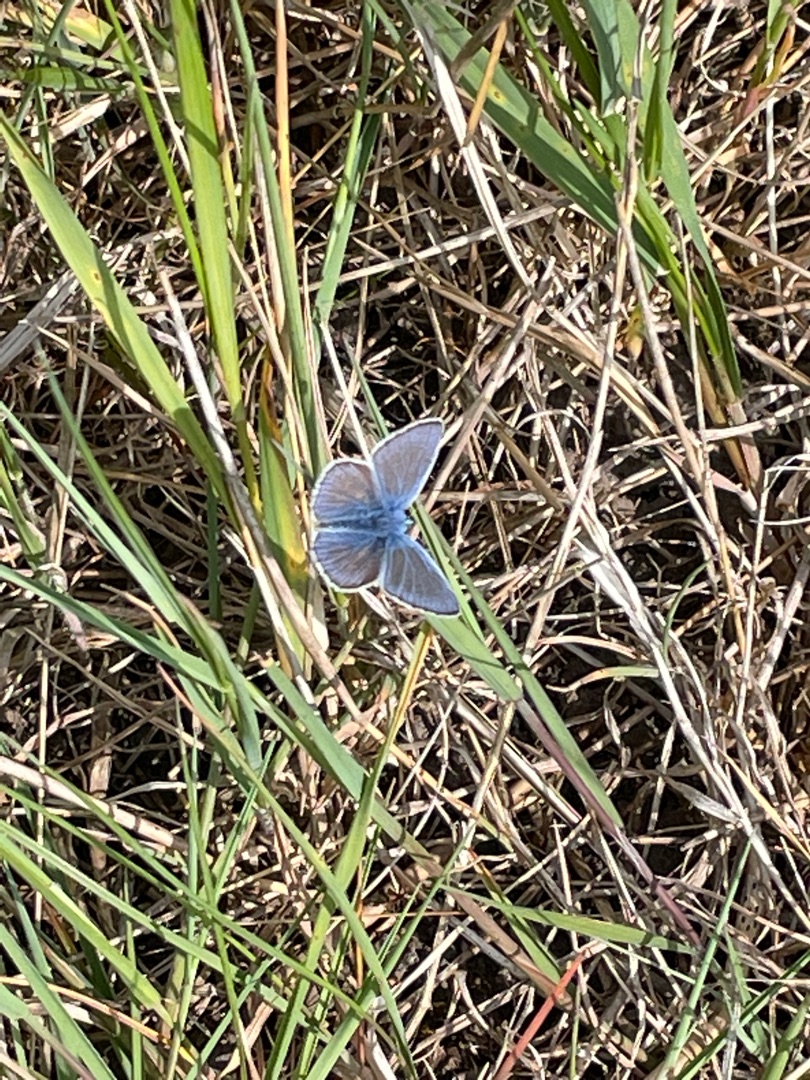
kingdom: Animalia
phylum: Arthropoda
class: Insecta
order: Lepidoptera
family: Lycaenidae
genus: Polyommatus
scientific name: Polyommatus icarus
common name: Almindelig blåfugl
